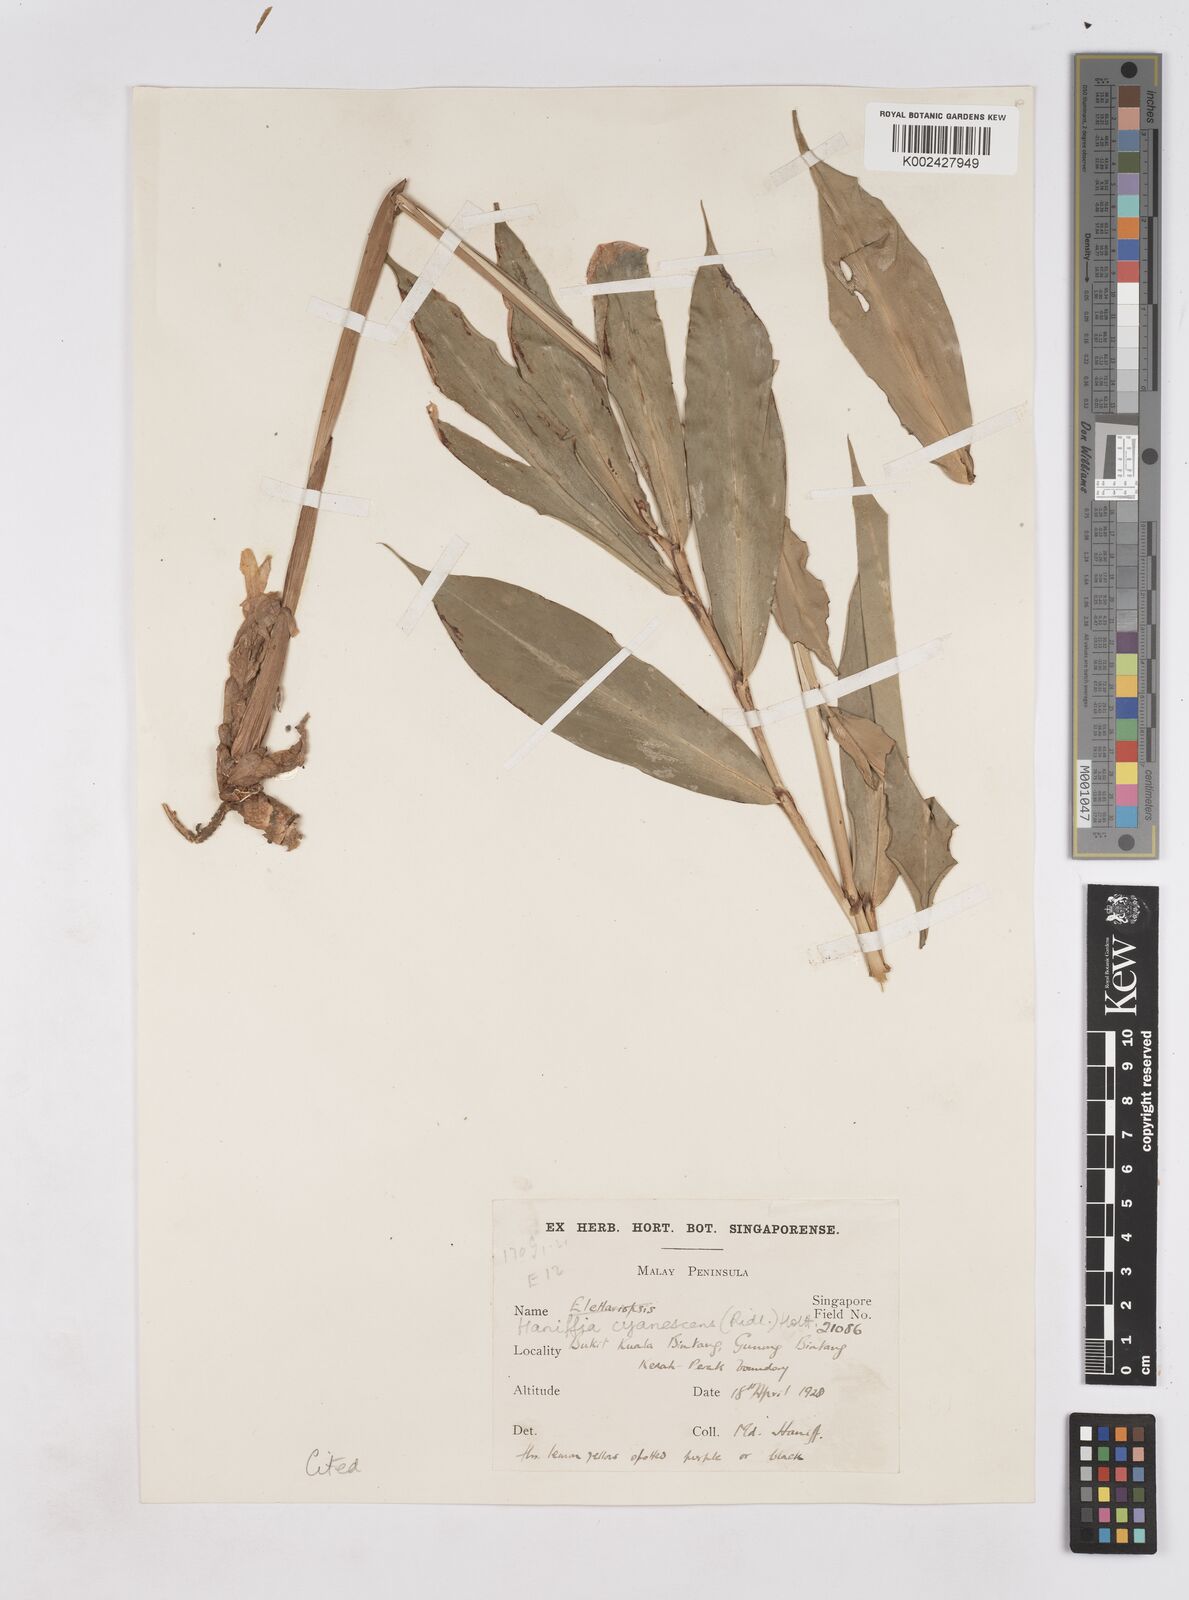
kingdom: Plantae
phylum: Tracheophyta
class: Liliopsida
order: Zingiberales
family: Zingiberaceae
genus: Haniffia
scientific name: Haniffia cyanescens
